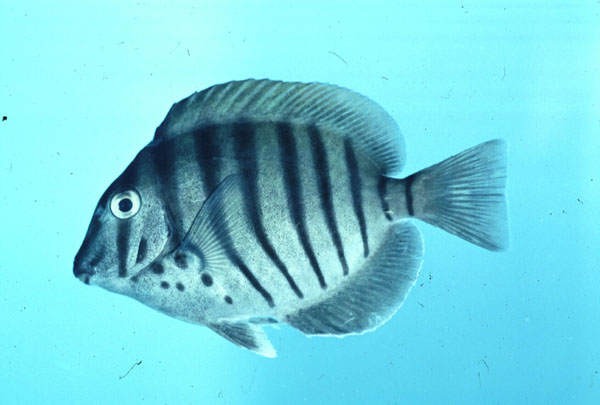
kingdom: Animalia
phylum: Chordata
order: Perciformes
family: Acanthuridae
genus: Acanthurus
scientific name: Acanthurus polyzona
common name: Black-barred surgeonfish
